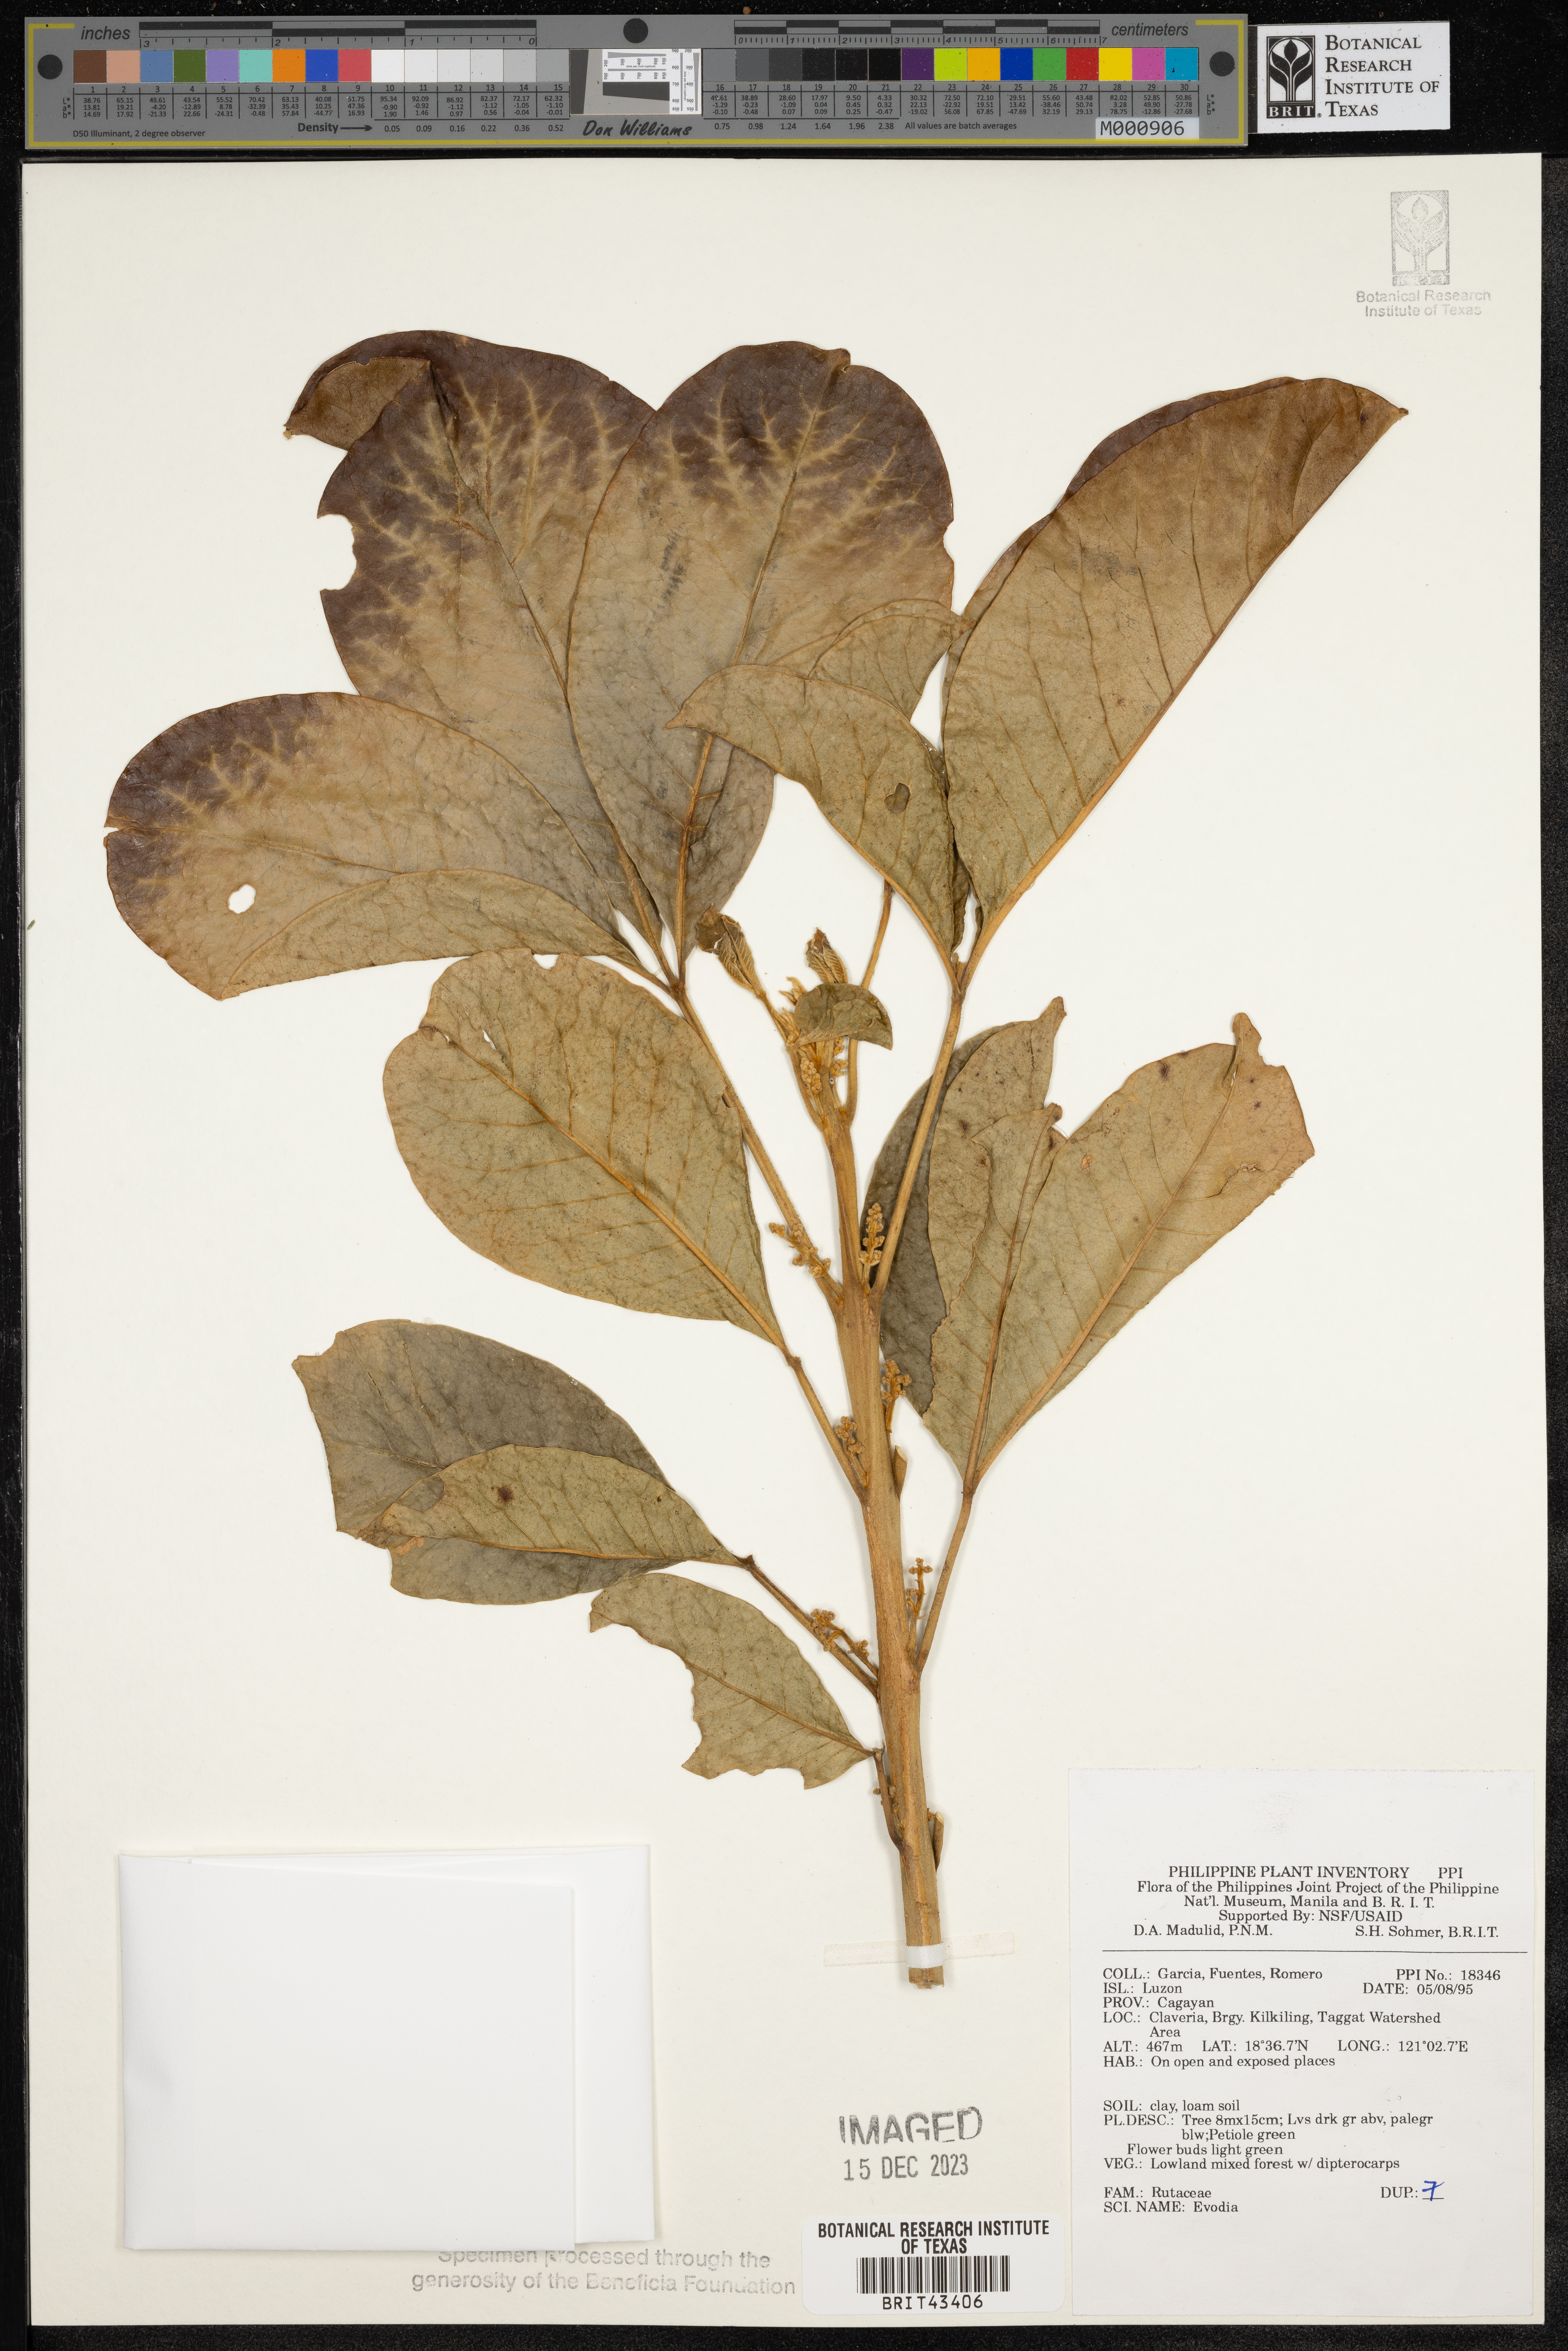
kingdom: Plantae
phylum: Tracheophyta
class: Magnoliopsida
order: Sapindales
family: Rutaceae
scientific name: Rutaceae
